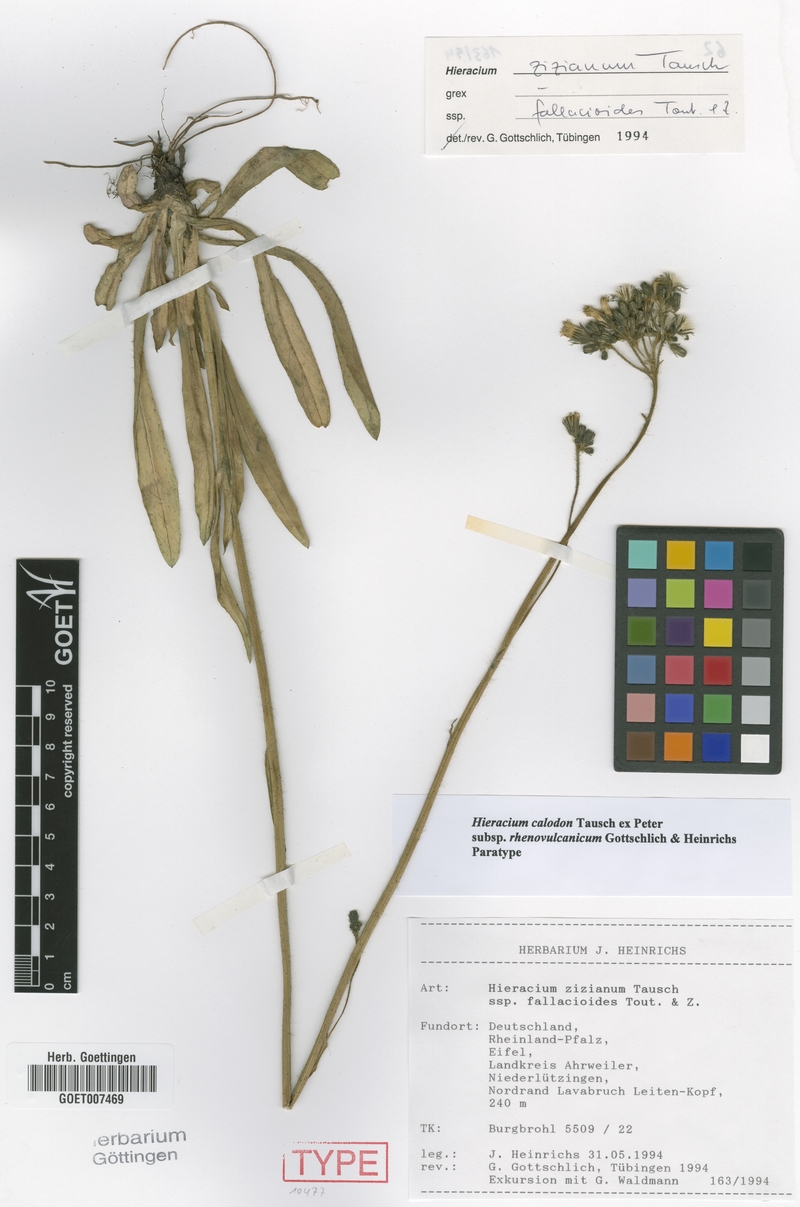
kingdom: Plantae
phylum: Tracheophyta
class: Magnoliopsida
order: Asterales
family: Asteraceae
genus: Pilosella
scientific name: Pilosella calodon
